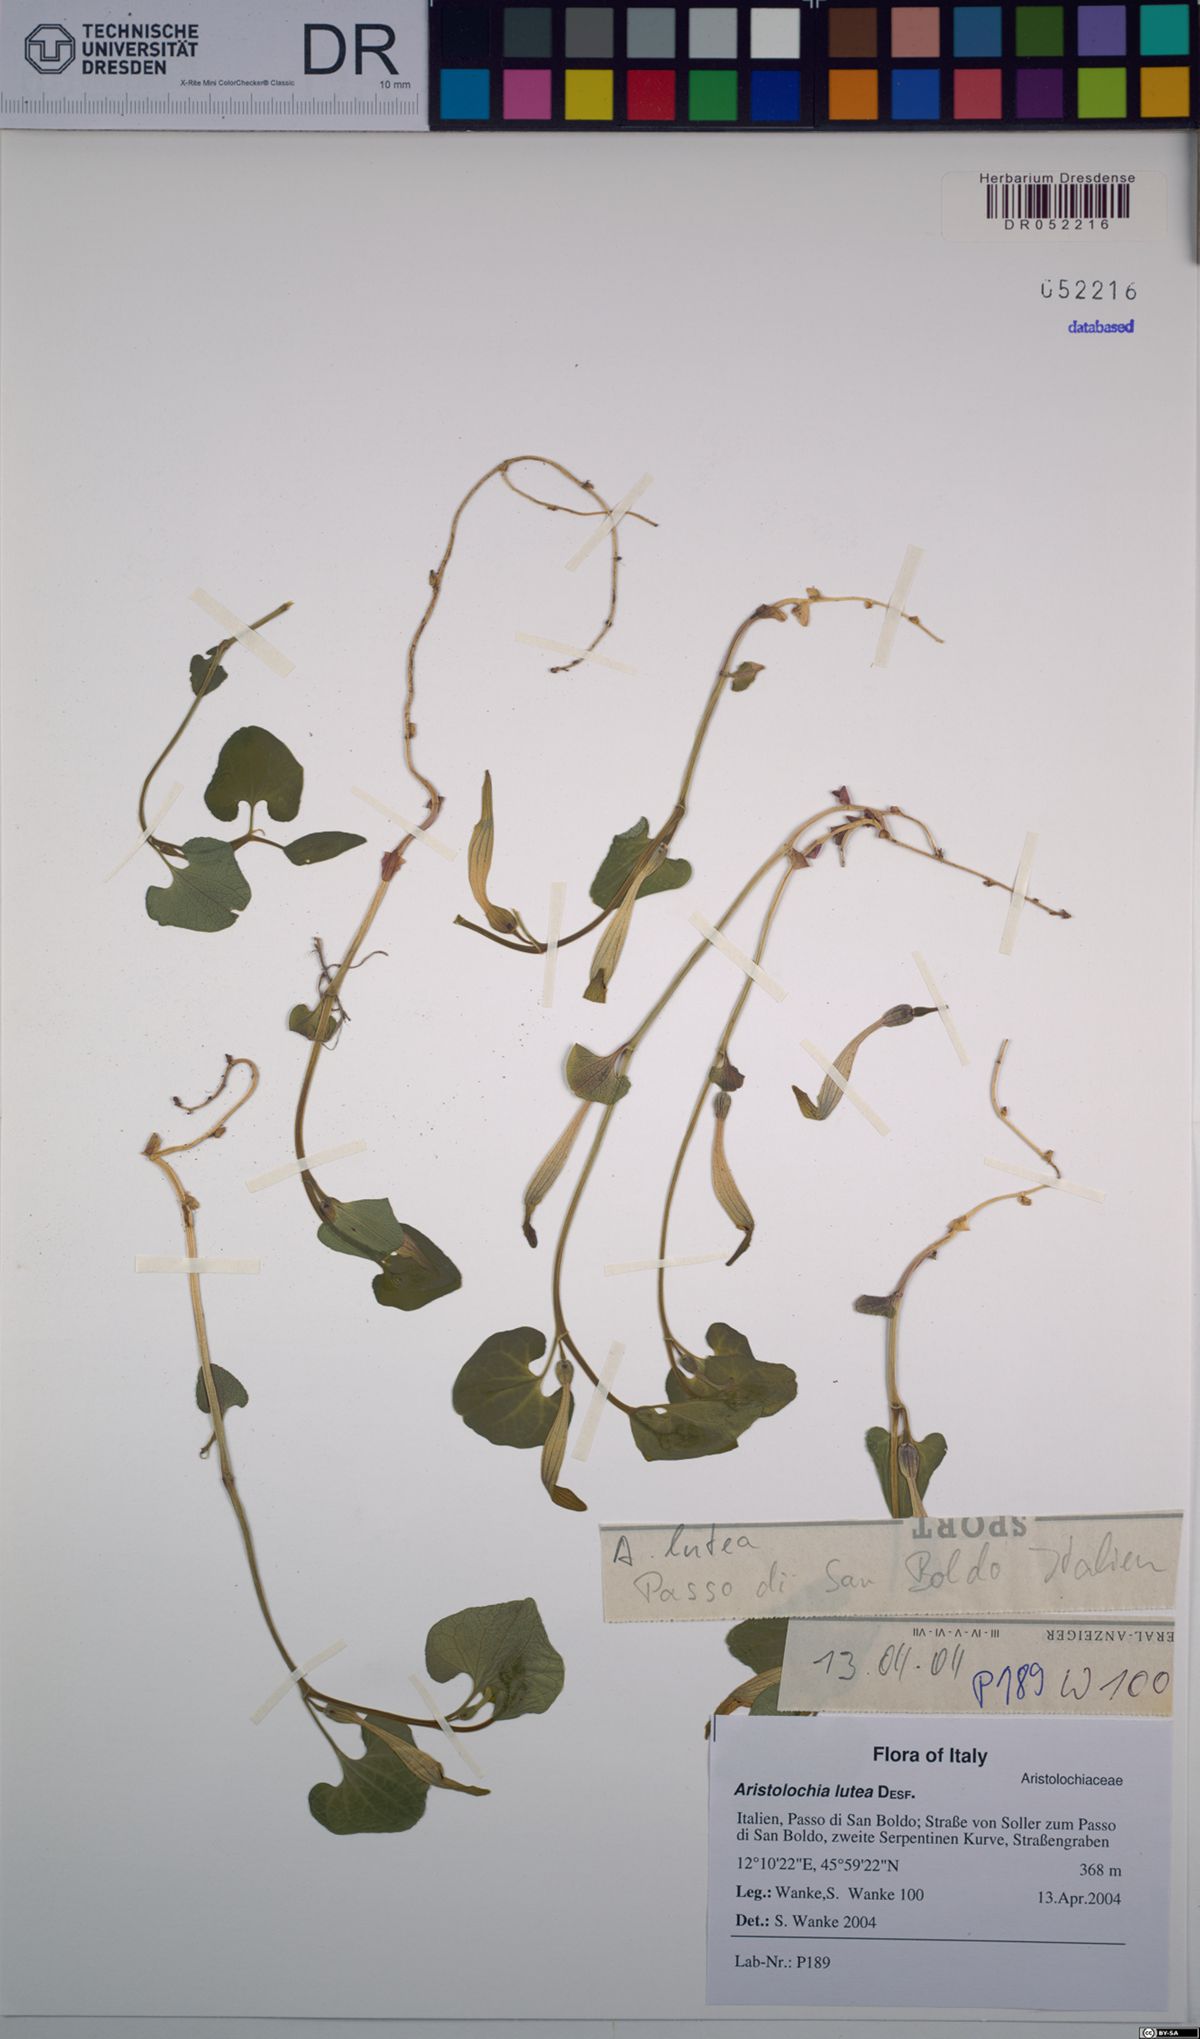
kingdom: Plantae
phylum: Tracheophyta
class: Magnoliopsida
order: Piperales
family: Aristolochiaceae
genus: Aristolochia
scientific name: Aristolochia lutea
